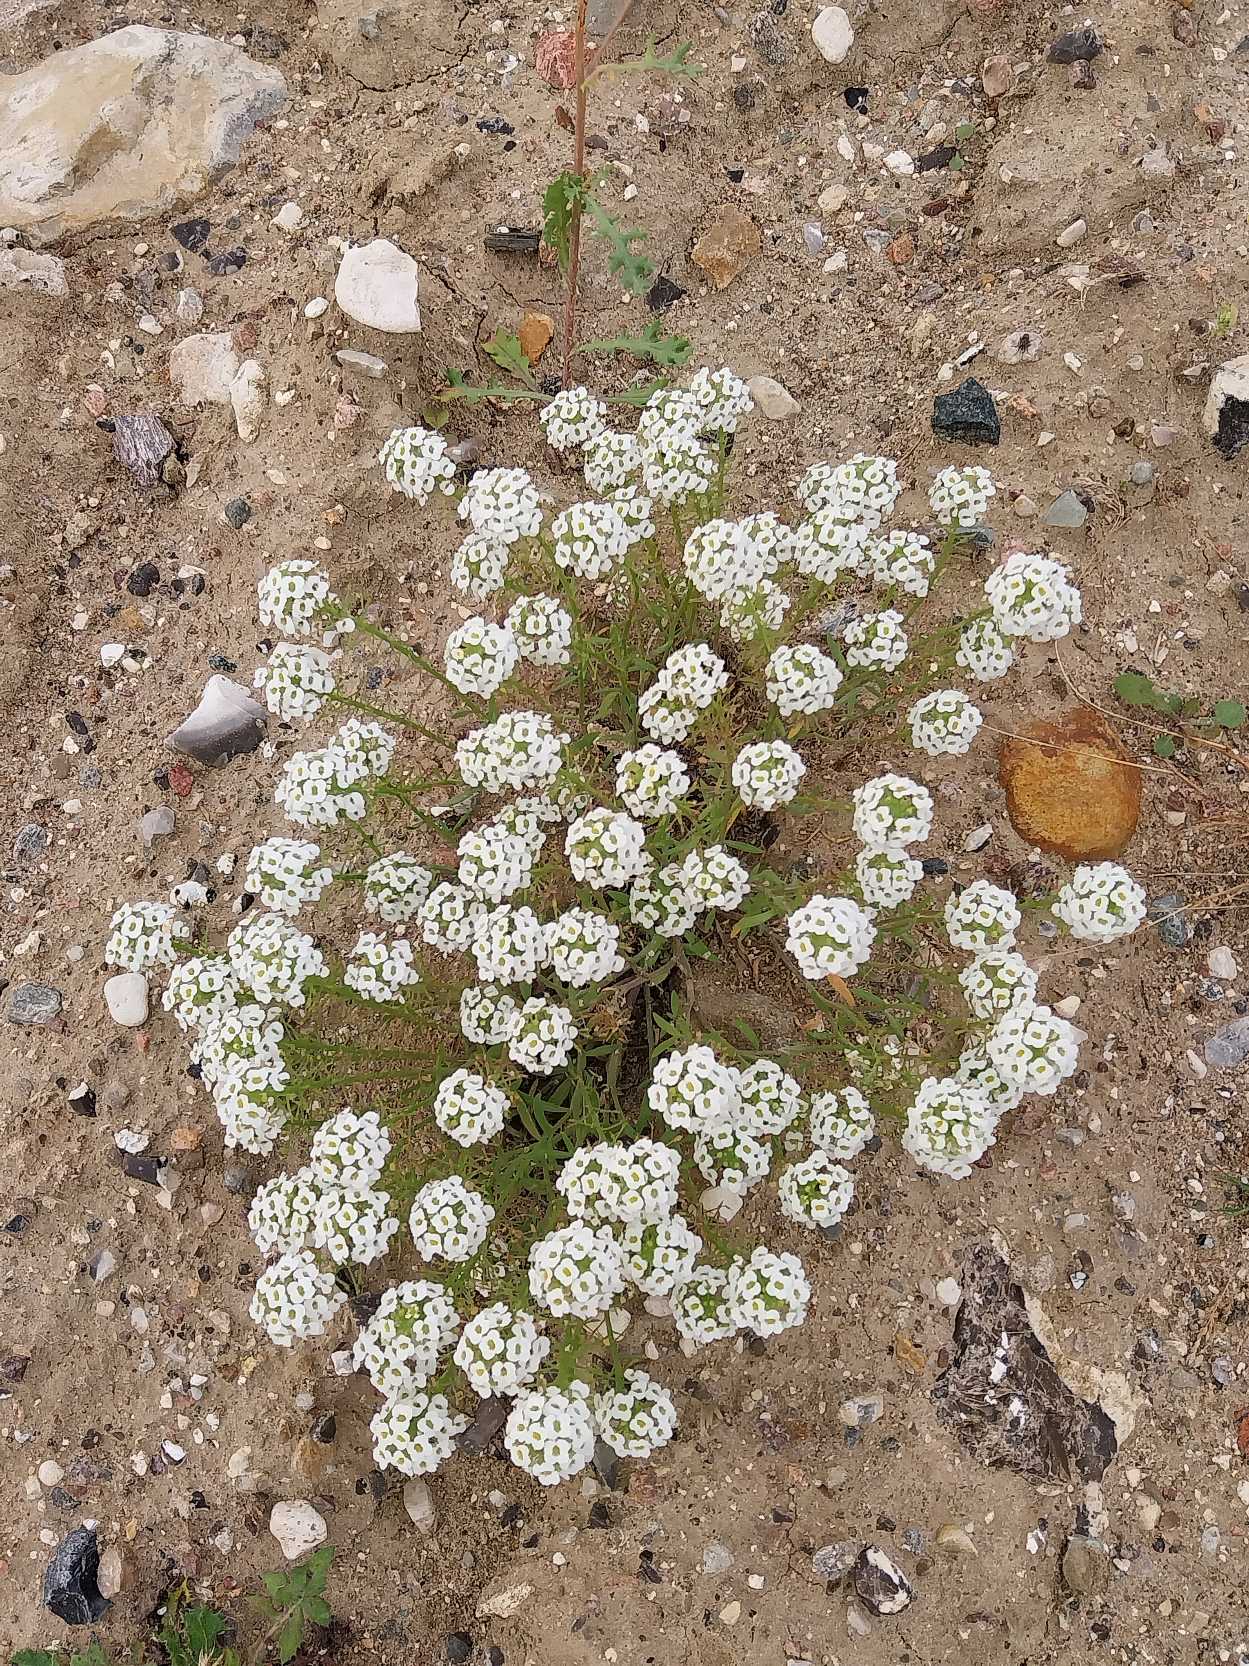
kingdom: Plantae
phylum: Tracheophyta
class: Magnoliopsida
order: Brassicales
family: Brassicaceae
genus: Lobularia
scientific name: Lobularia maritima
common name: Biblomme
